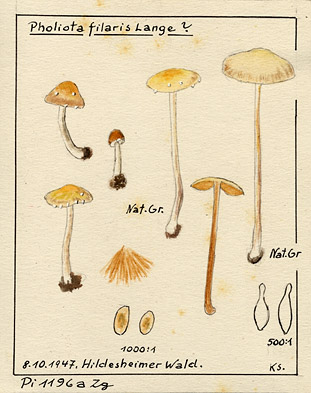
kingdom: Fungi
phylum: Basidiomycota
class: Agaricomycetes
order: Agaricales
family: Bolbitiaceae
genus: Conocybe
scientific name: Conocybe filaris
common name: Fool's conecap
